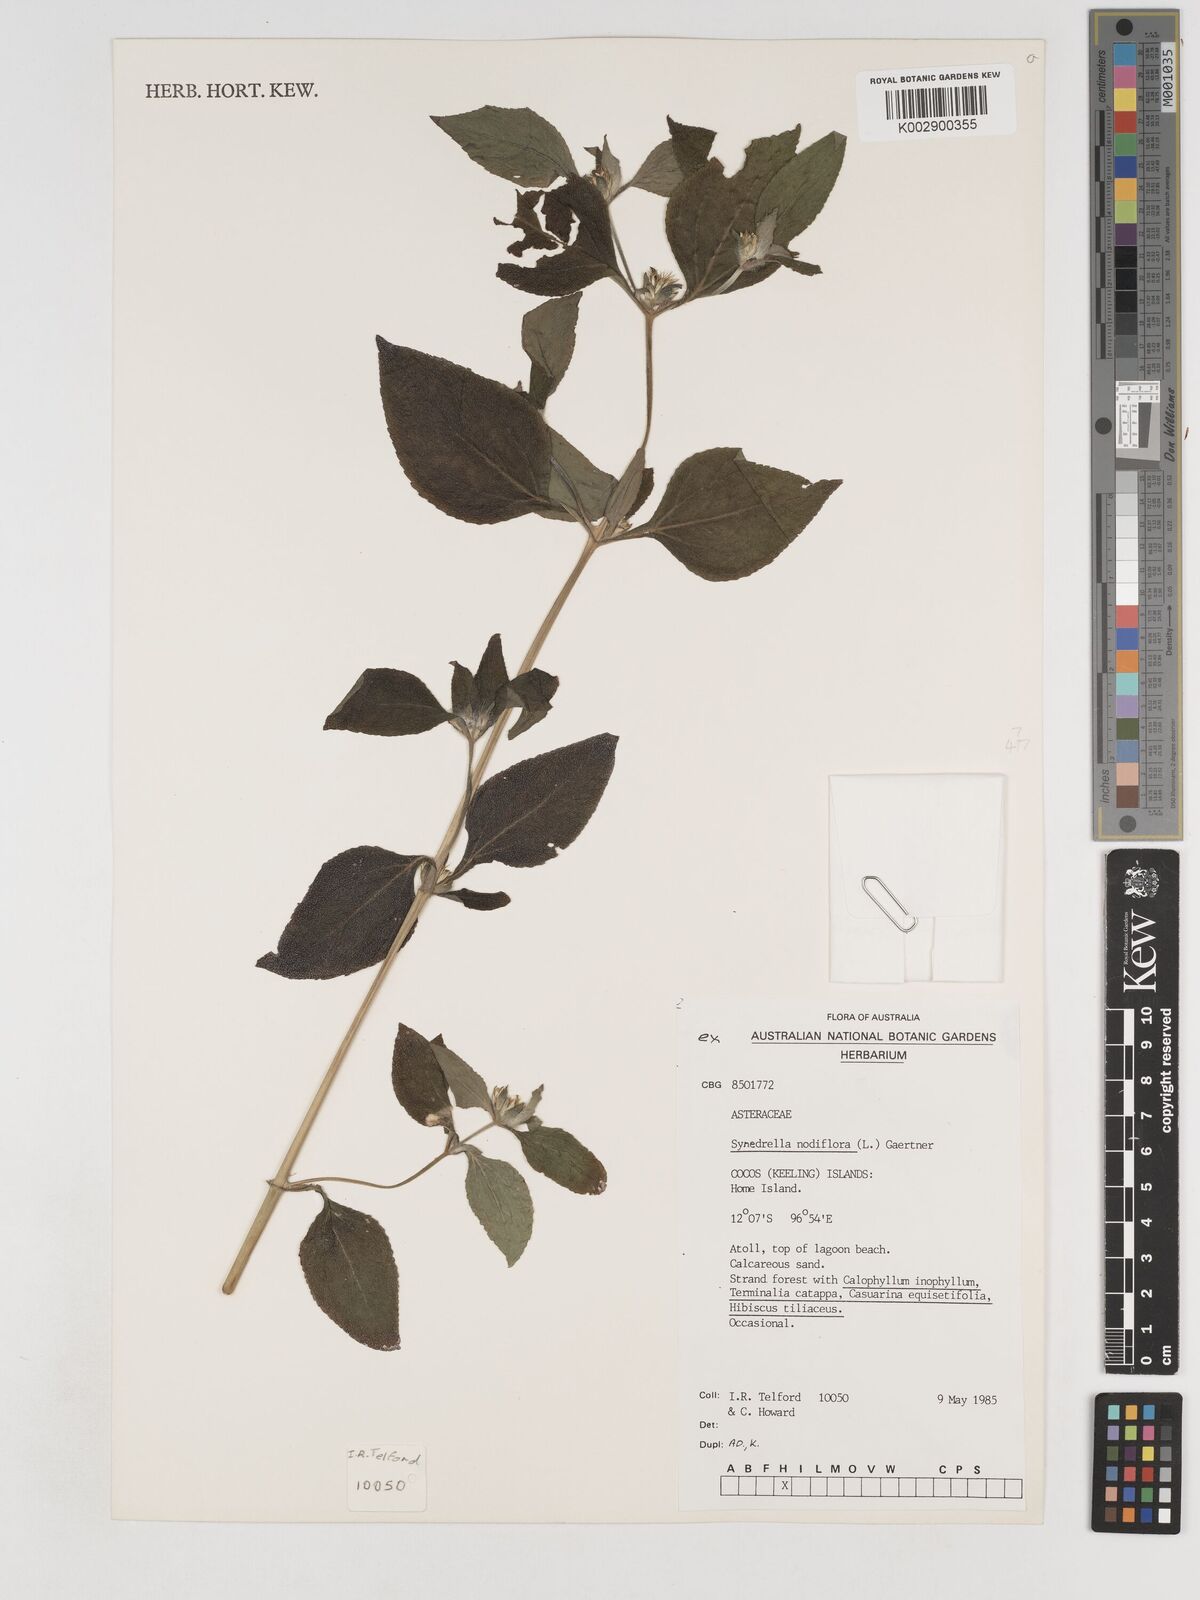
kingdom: Plantae
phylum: Tracheophyta
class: Magnoliopsida
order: Asterales
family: Asteraceae
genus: Synedrella
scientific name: Synedrella nodiflora
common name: Nodeweed
